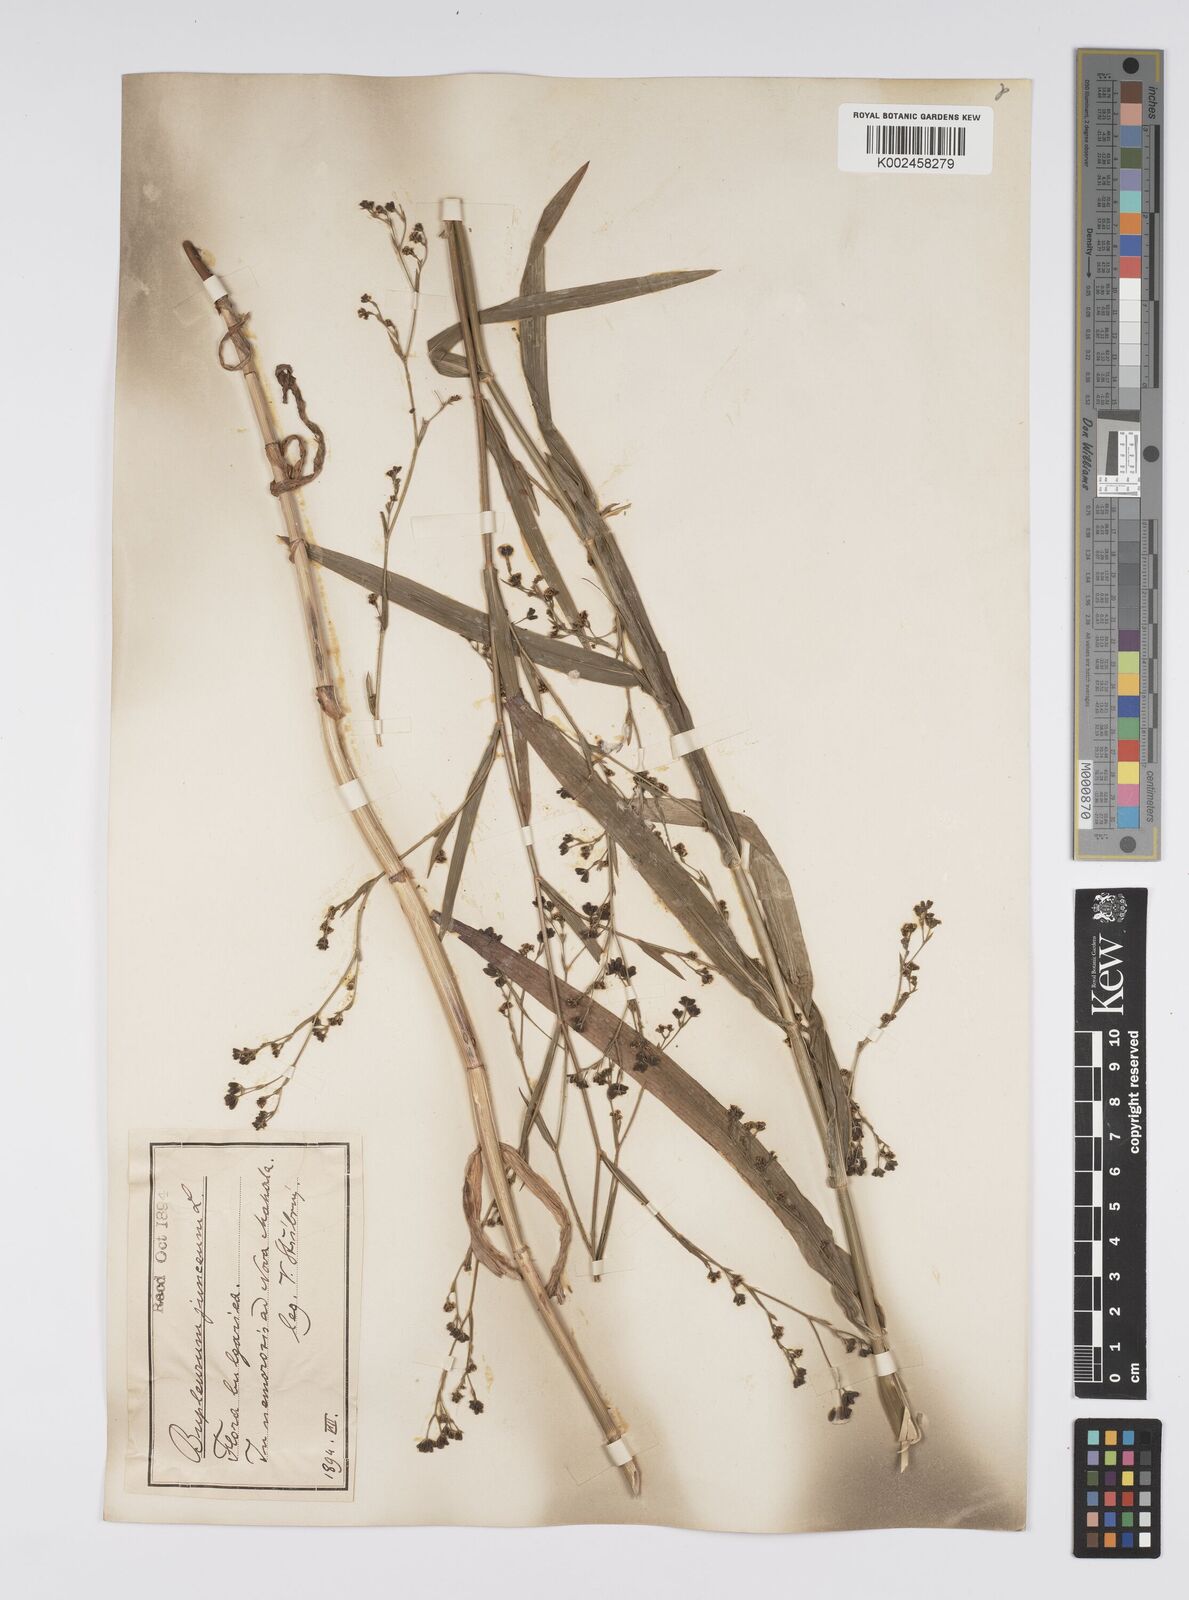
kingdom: Plantae
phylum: Tracheophyta
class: Magnoliopsida
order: Apiales
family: Apiaceae
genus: Bupleurum
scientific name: Bupleurum praealtum
